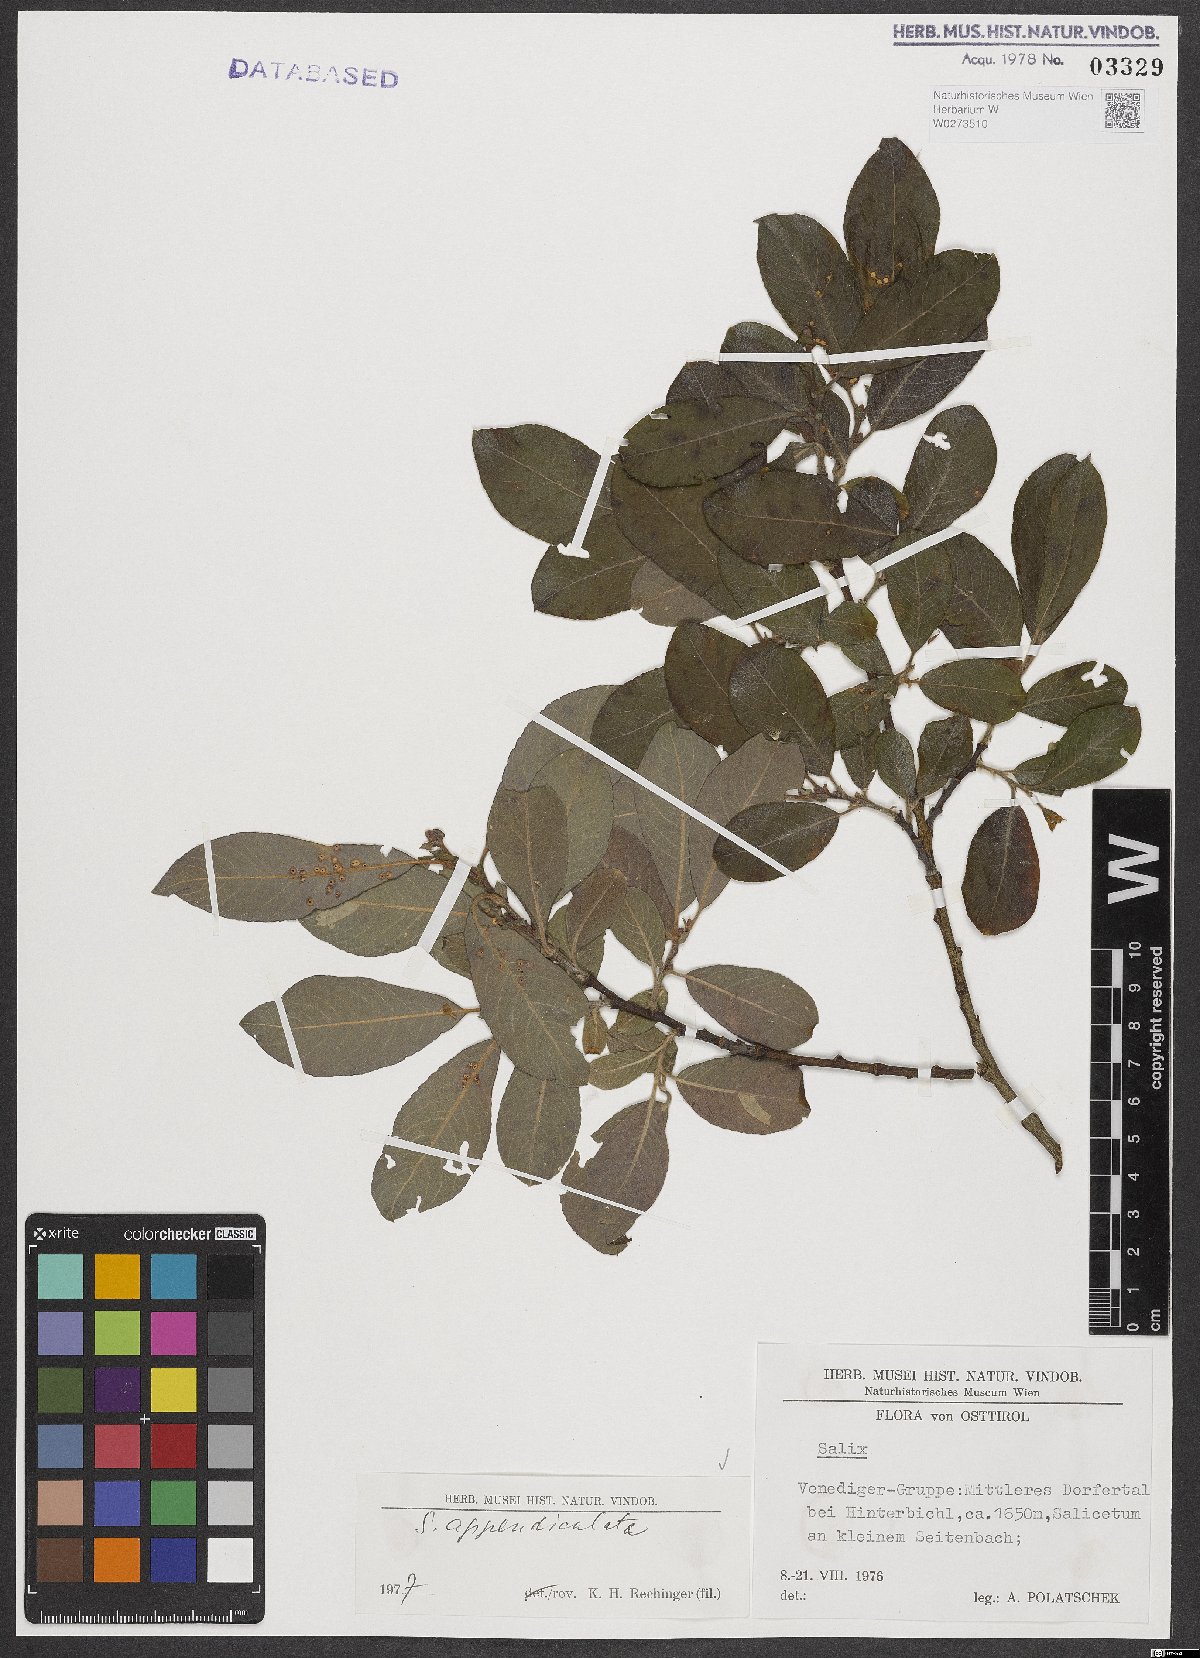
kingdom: Plantae
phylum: Tracheophyta
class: Magnoliopsida
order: Malpighiales
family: Salicaceae
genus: Salix
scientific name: Salix appendiculata
